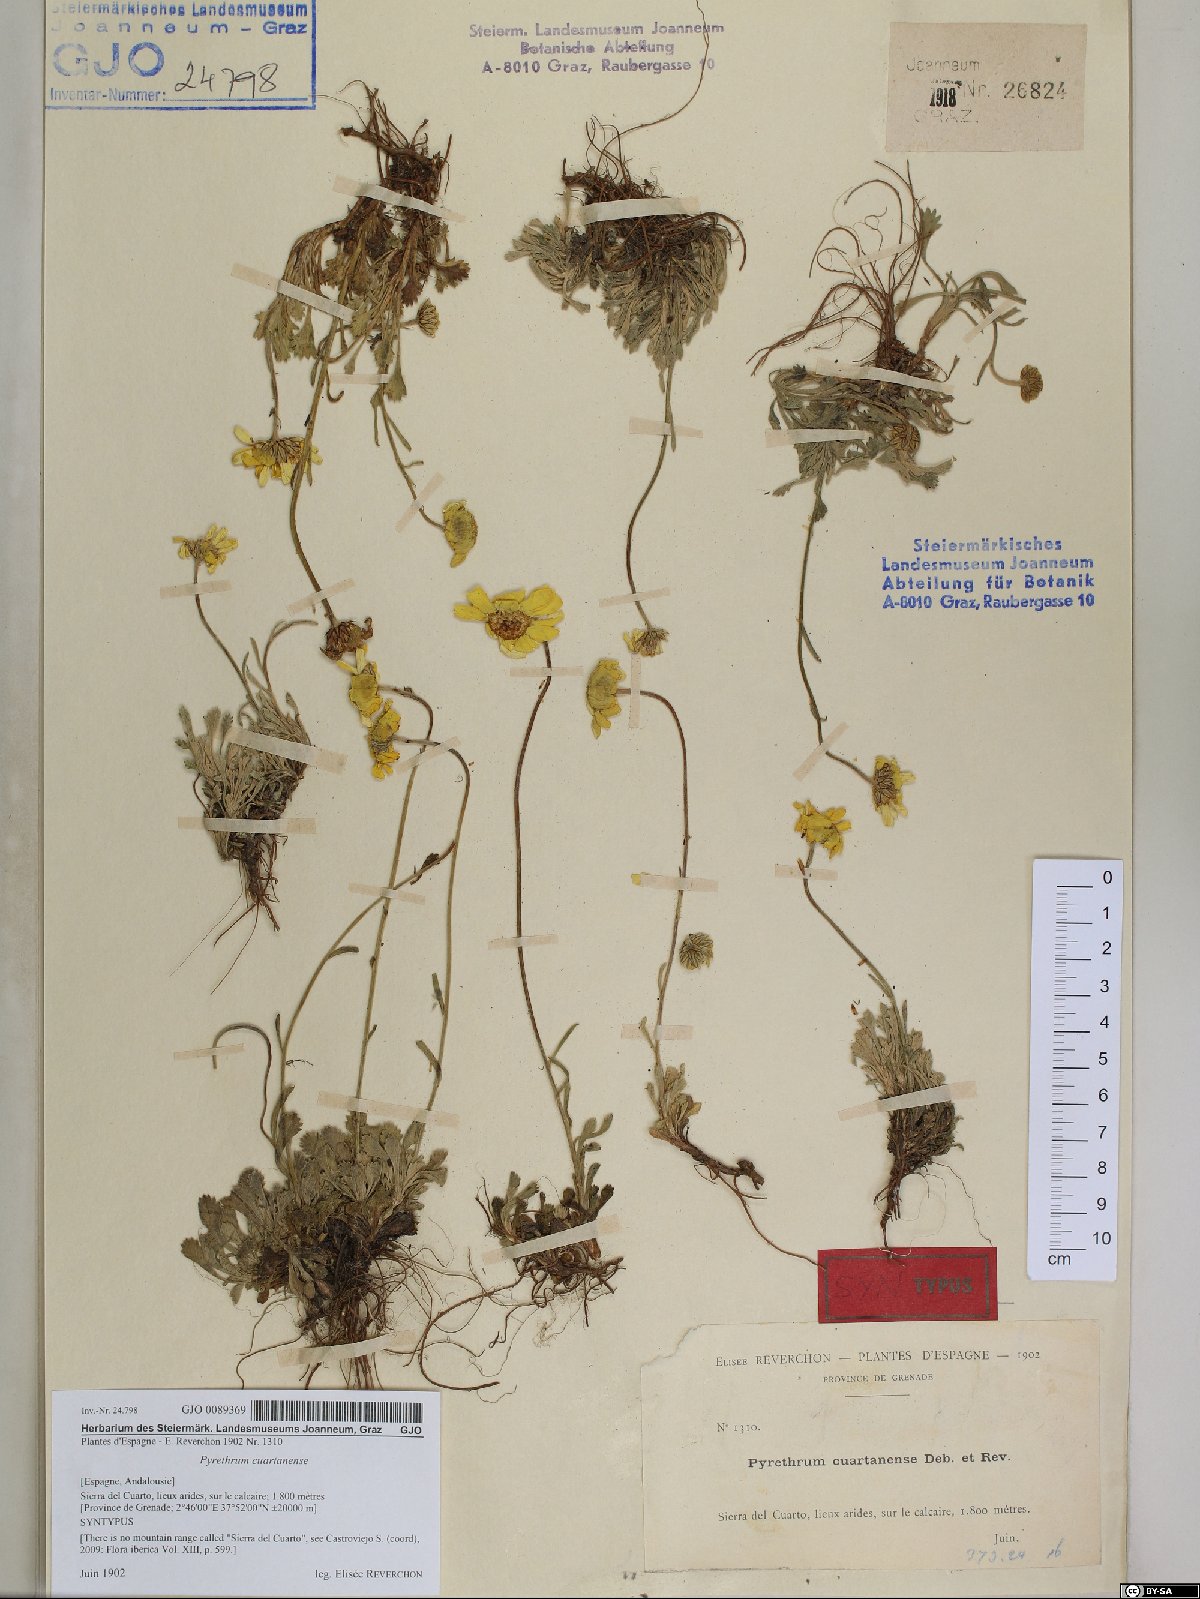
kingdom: Plantae
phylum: Tracheophyta
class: Magnoliopsida
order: Asterales
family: Asteraceae
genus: Pyrethrum
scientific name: Pyrethrum
